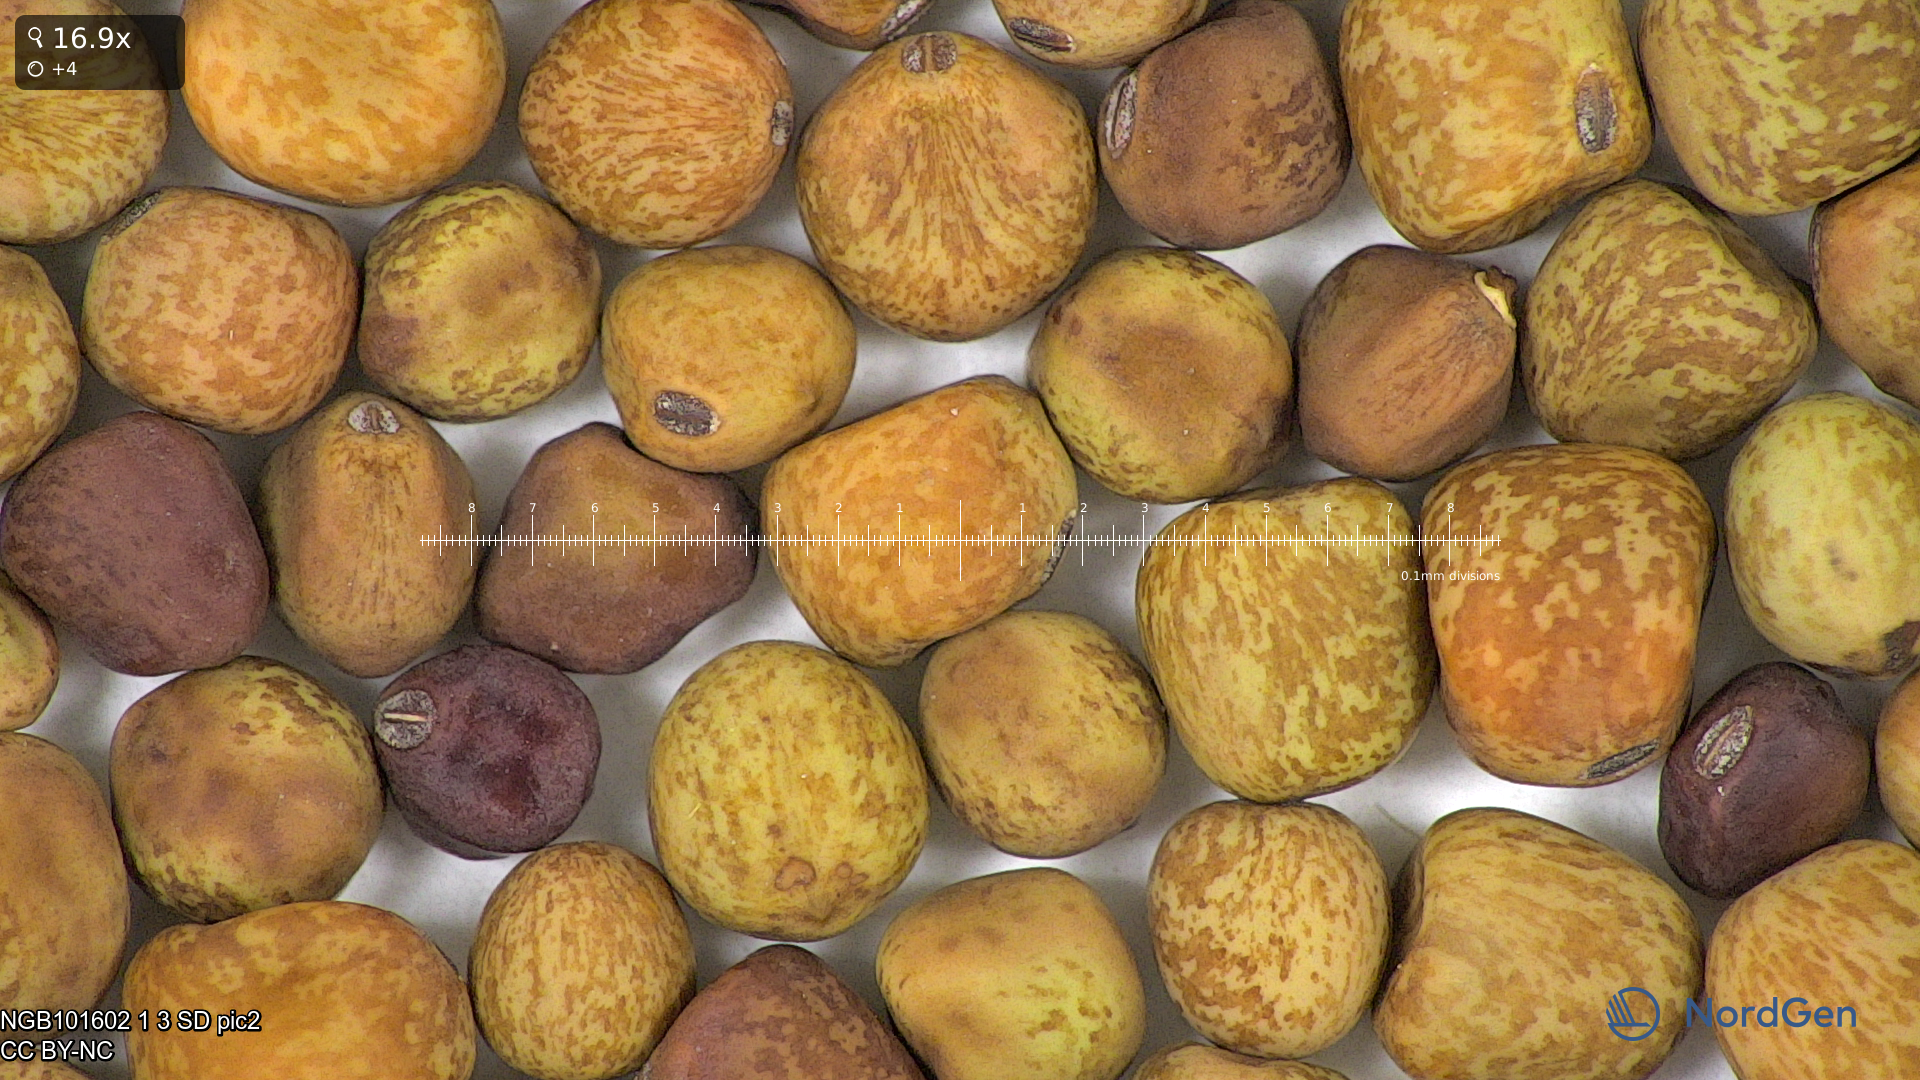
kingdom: Plantae
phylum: Tracheophyta
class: Magnoliopsida
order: Fabales
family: Fabaceae
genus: Lathyrus
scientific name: Lathyrus oleraceus
